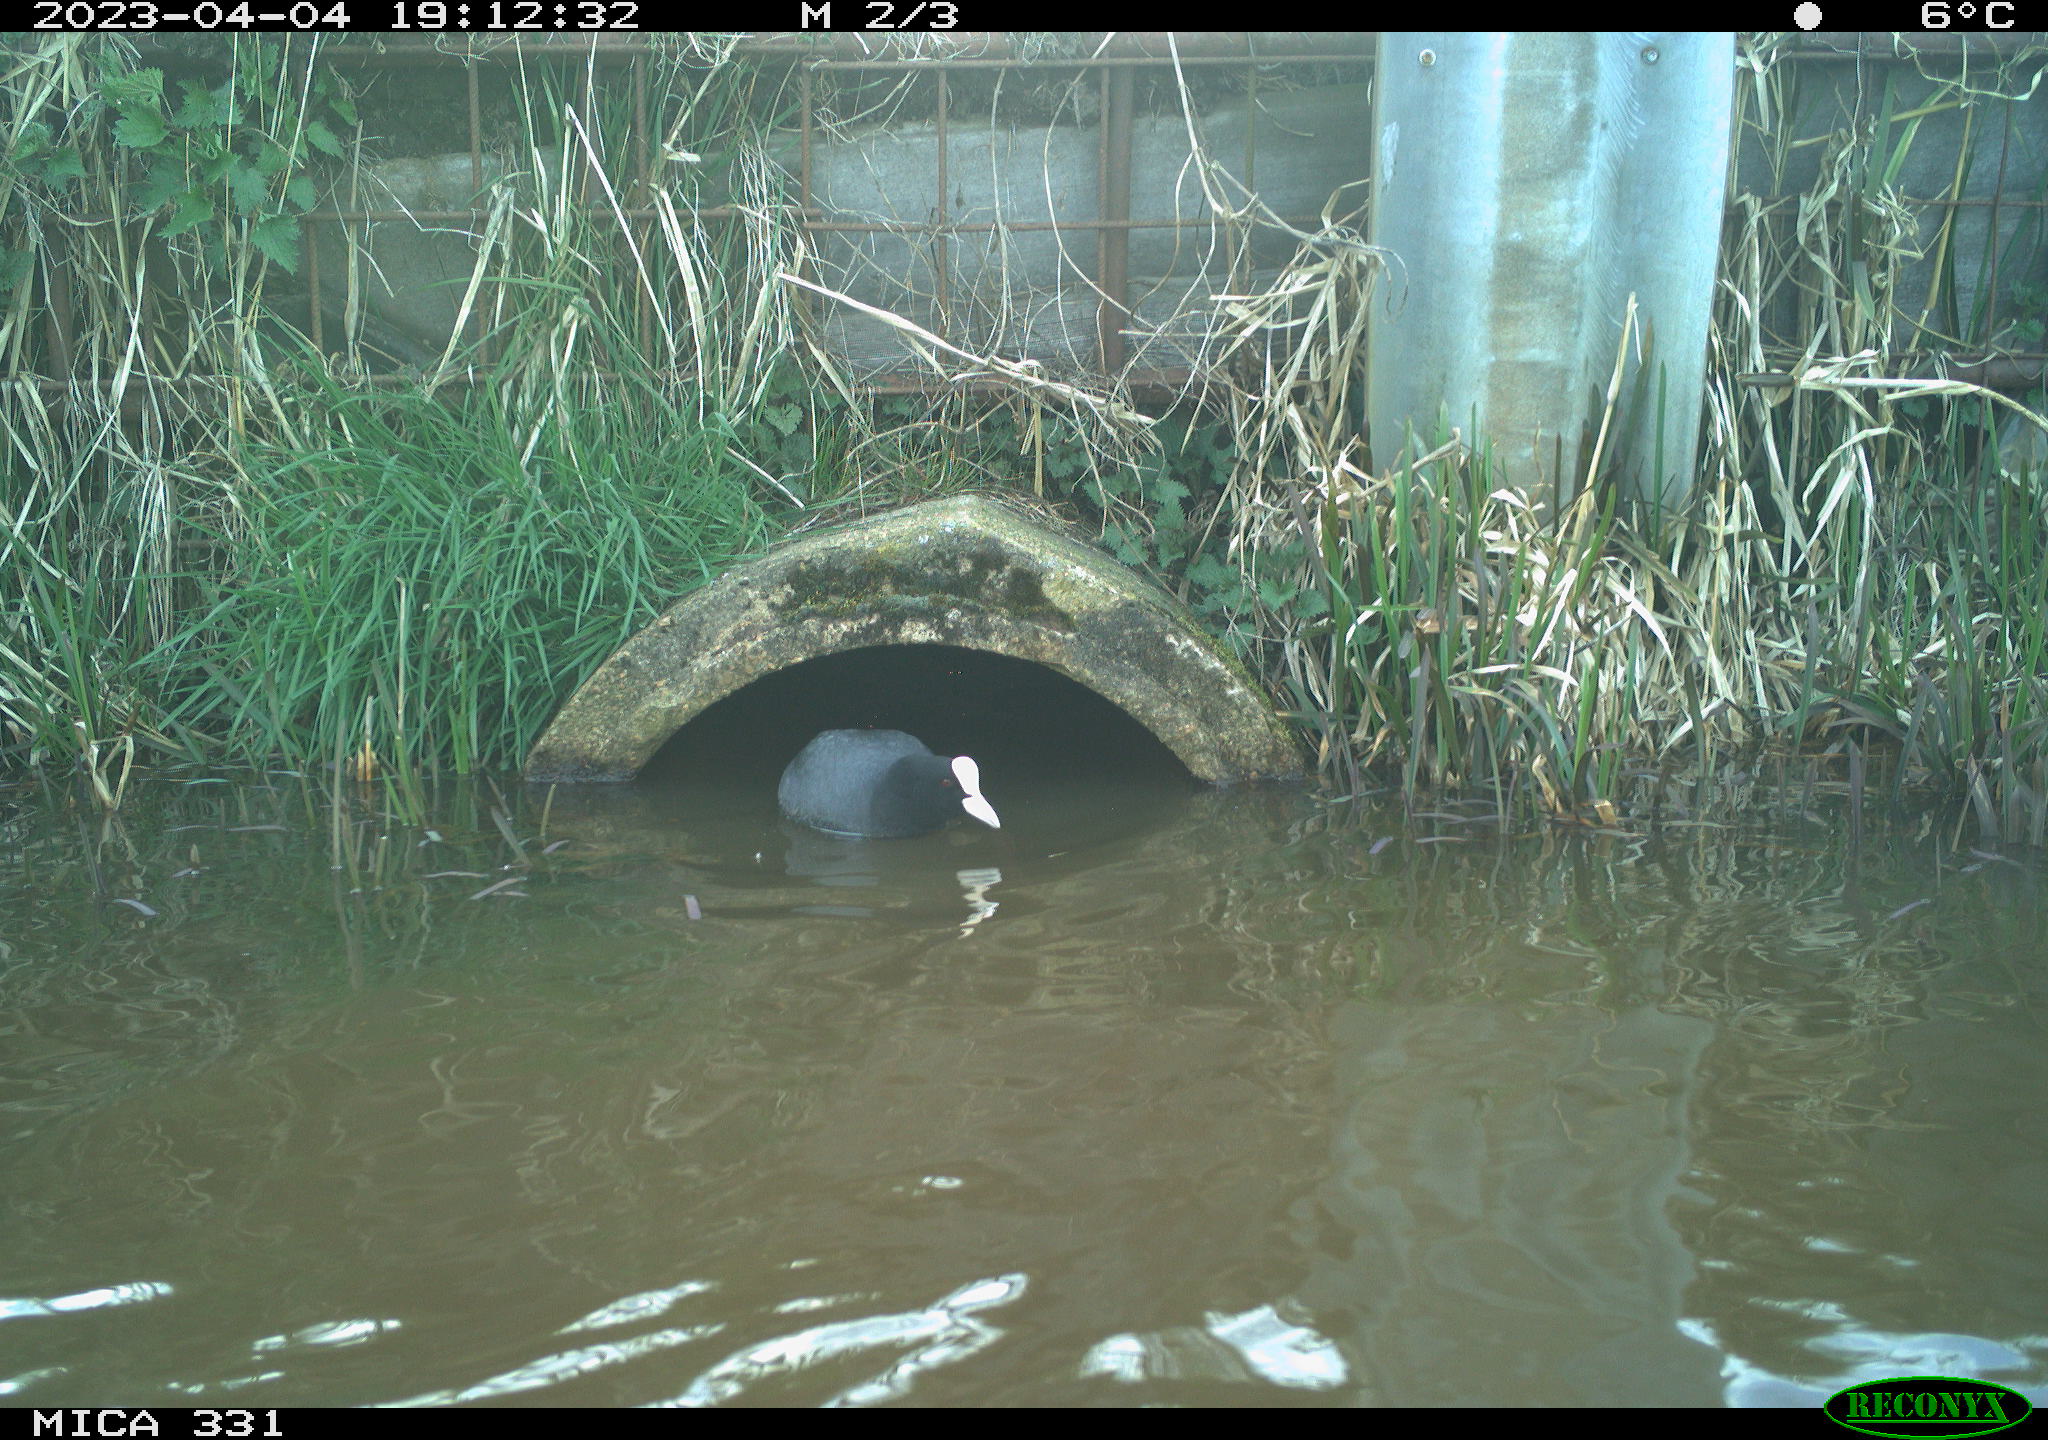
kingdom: Animalia
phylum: Chordata
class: Aves
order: Gruiformes
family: Rallidae
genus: Fulica
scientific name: Fulica atra
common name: Eurasian coot
